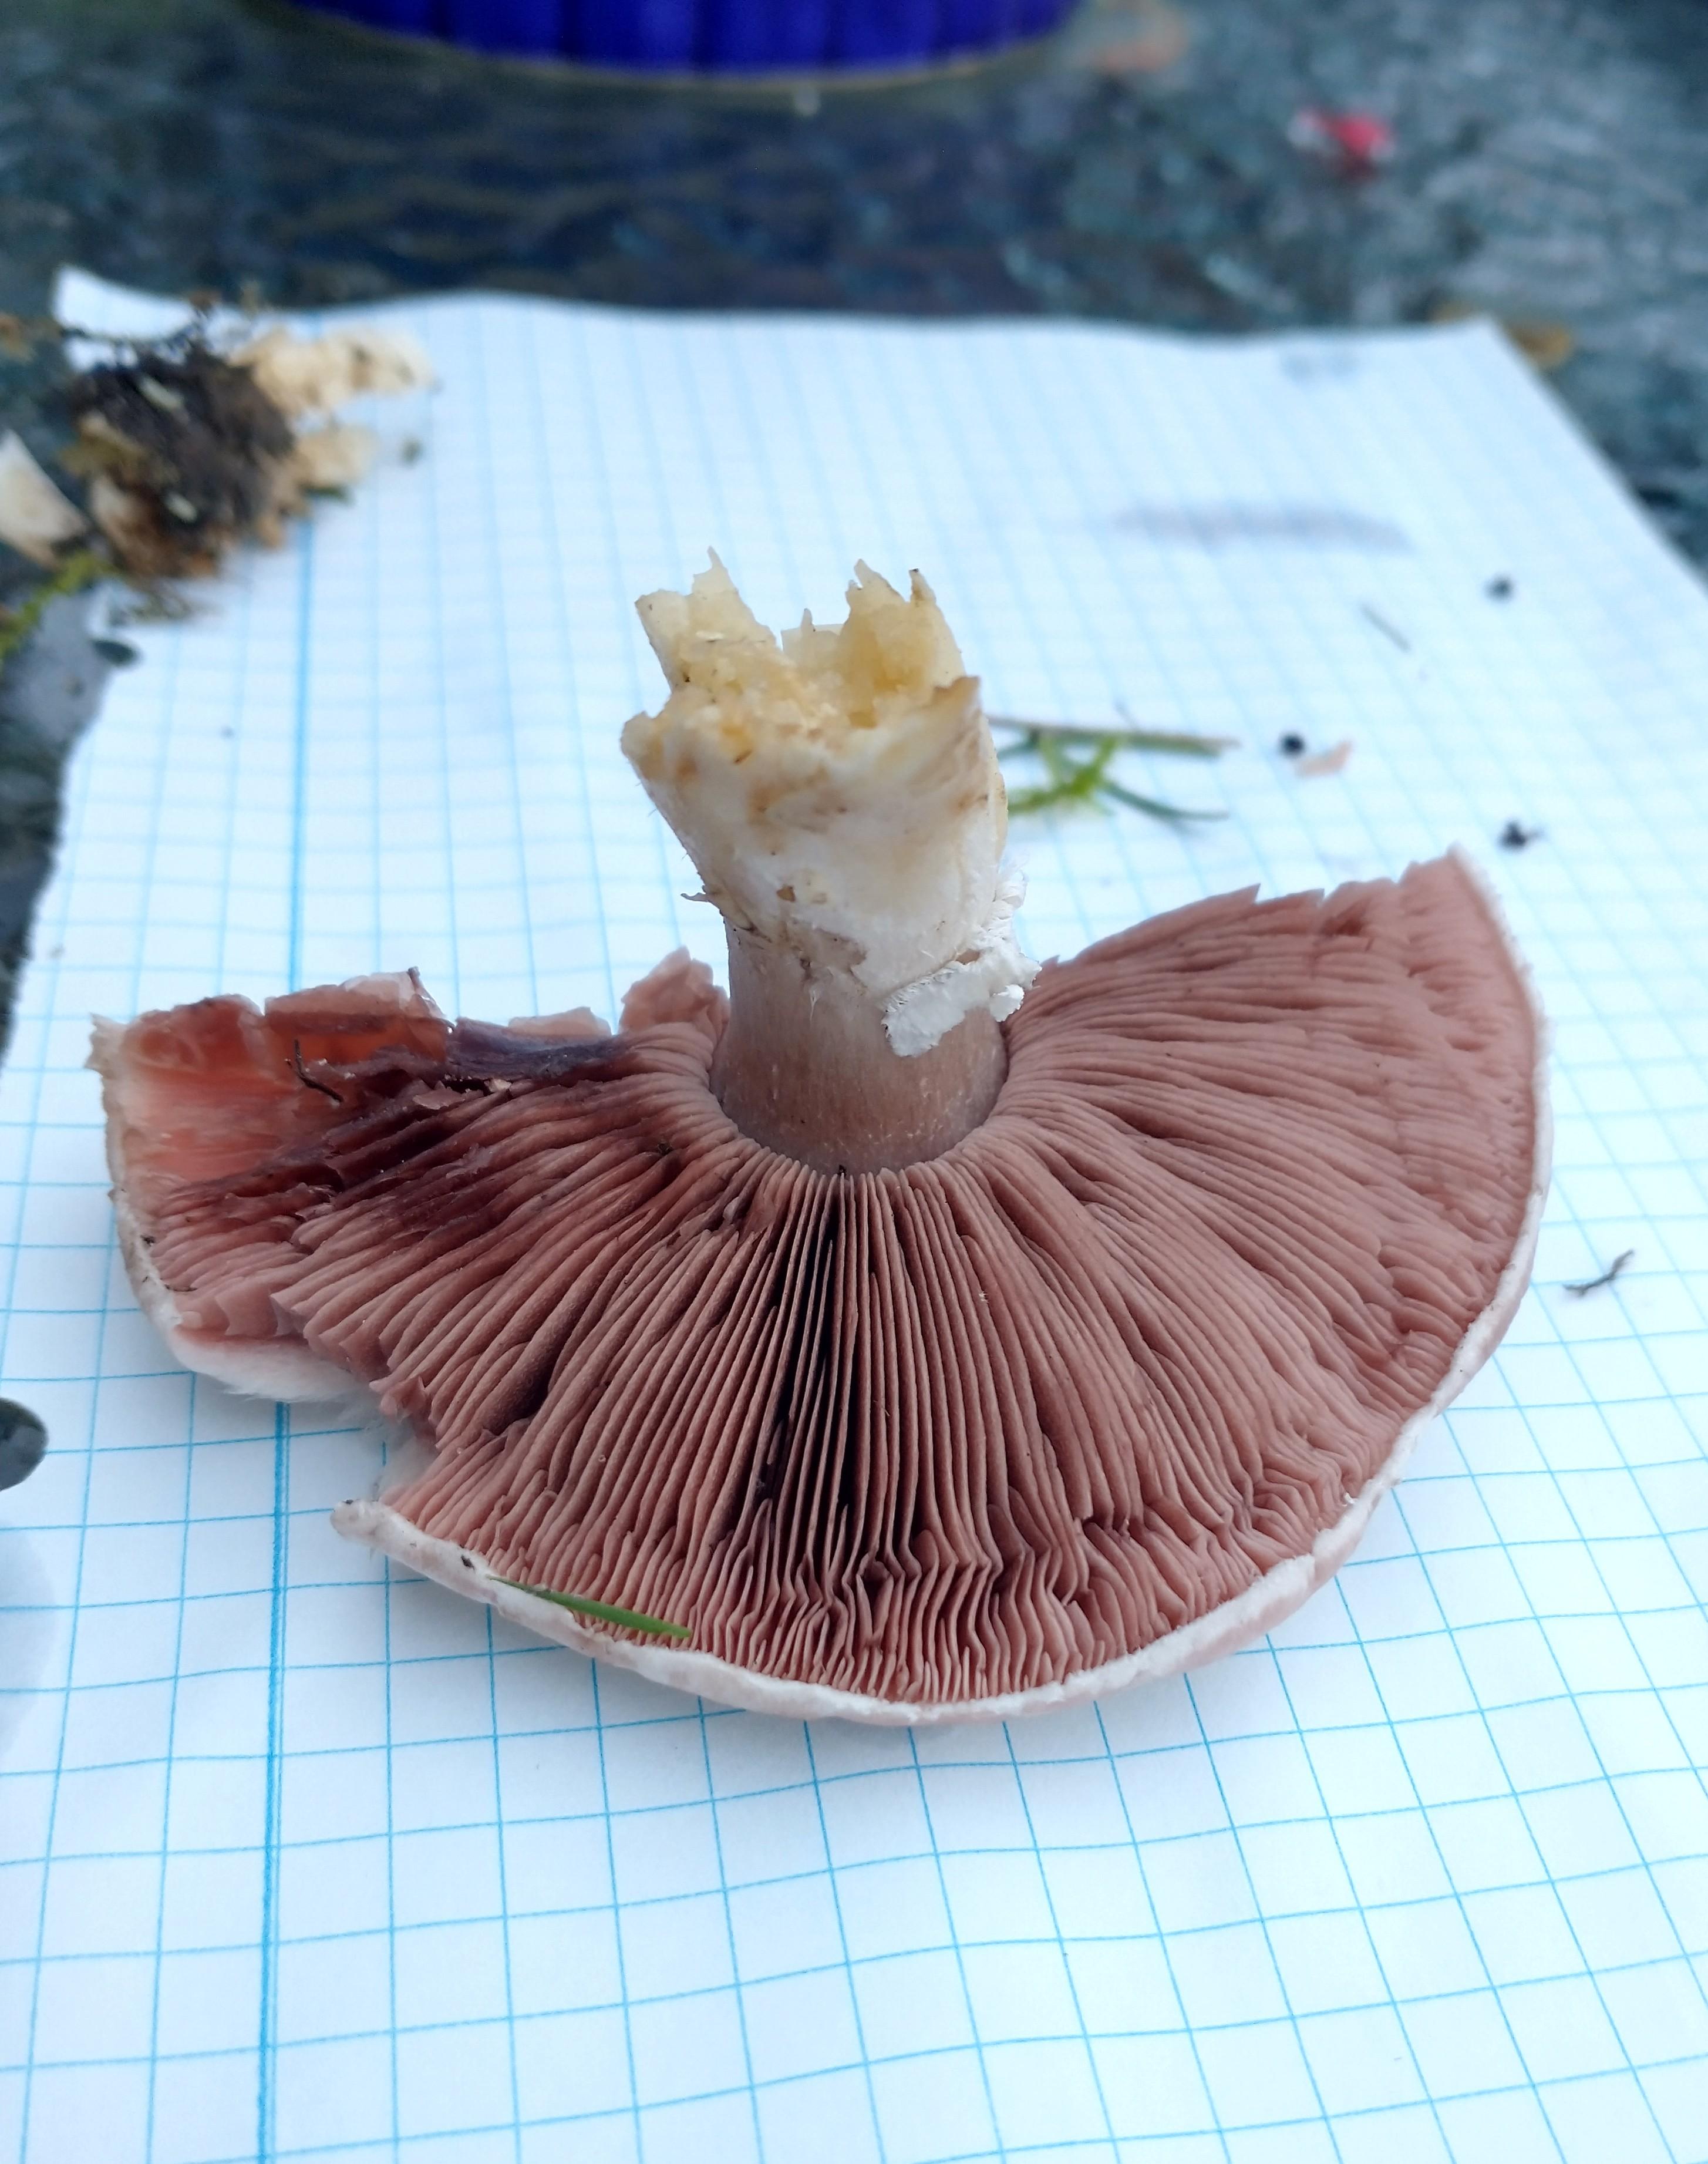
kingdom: Fungi
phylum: Basidiomycota
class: Agaricomycetes
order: Agaricales
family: Agaricaceae
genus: Agaricus
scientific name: Agaricus
